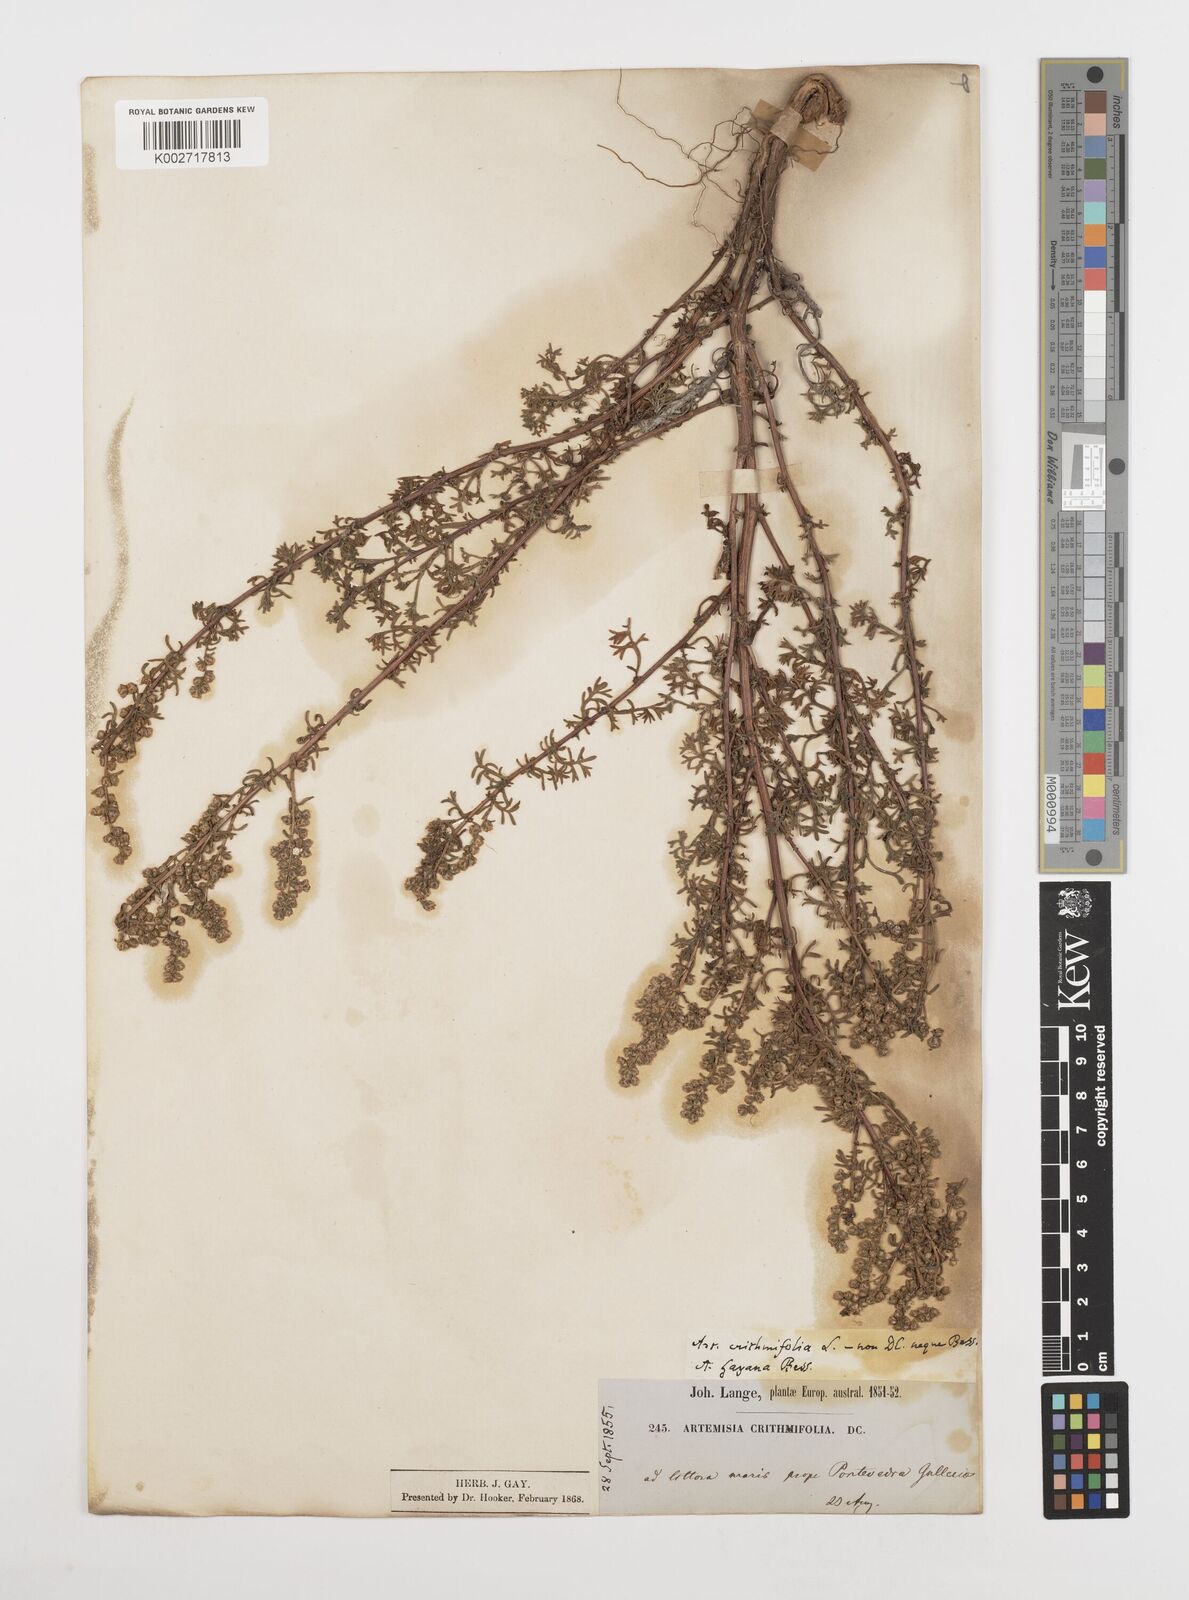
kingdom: Plantae
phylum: Tracheophyta
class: Magnoliopsida
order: Asterales
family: Asteraceae
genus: Artemisia
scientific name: Artemisia crithmifolia
